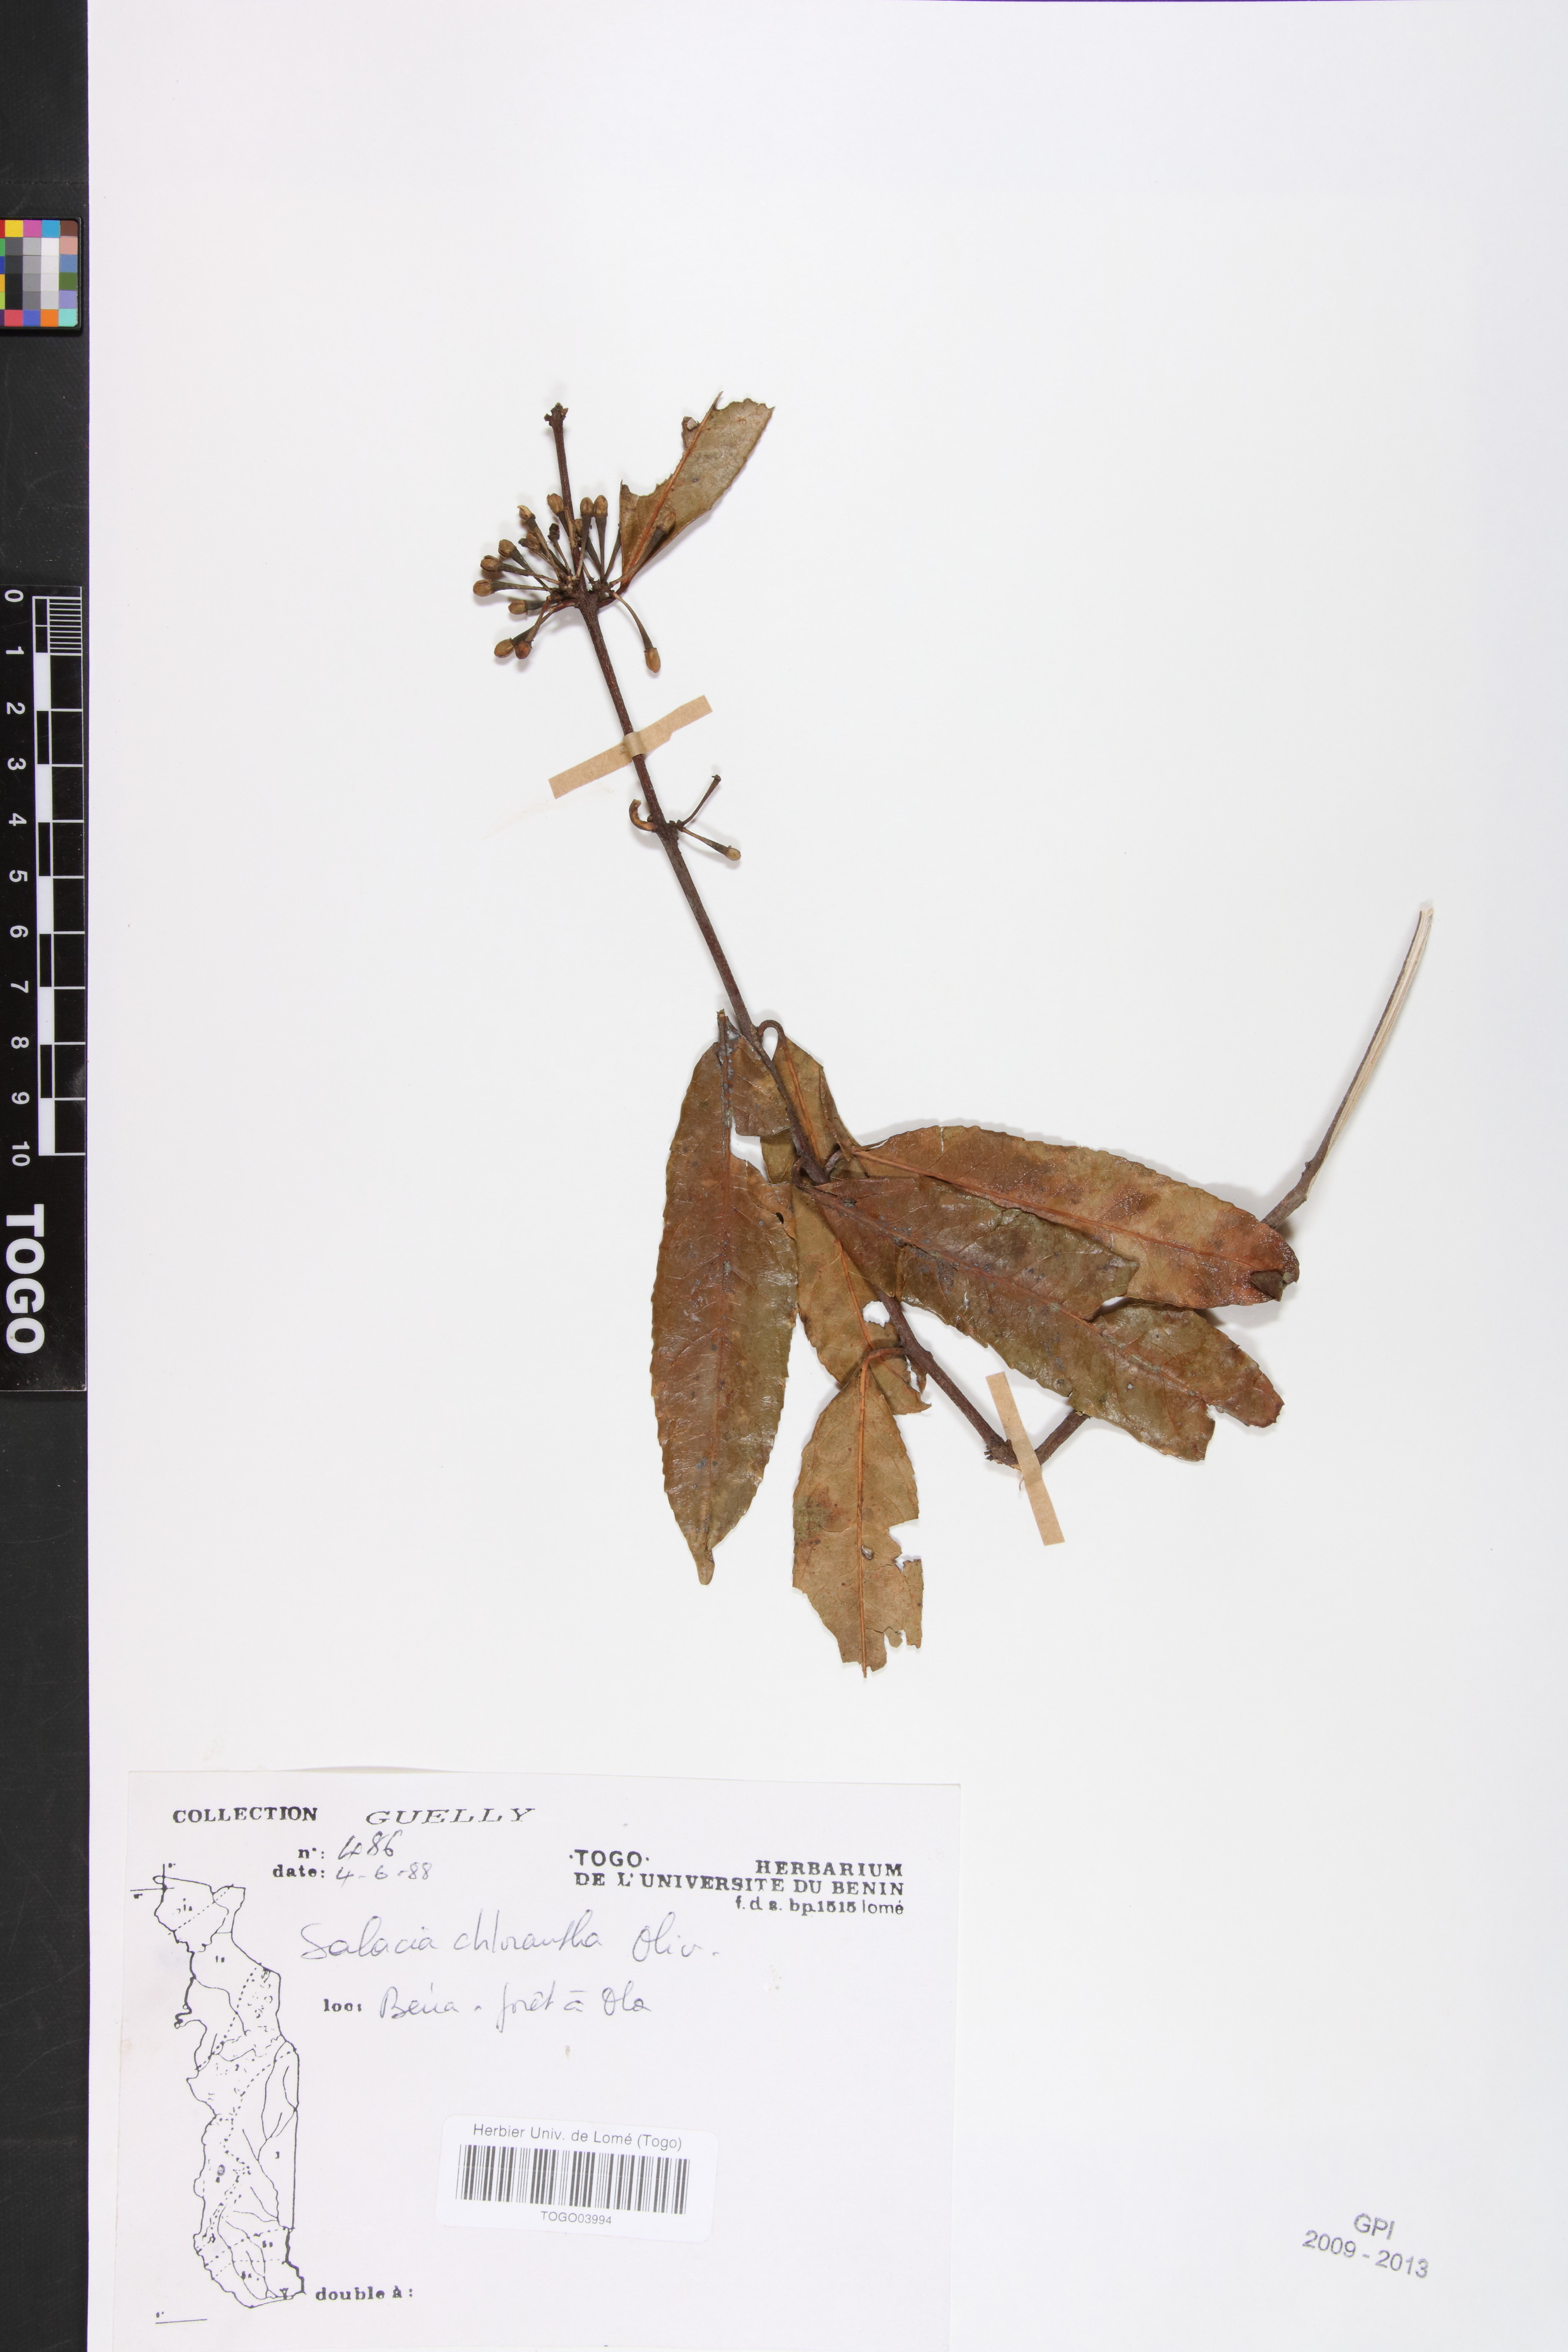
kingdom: Plantae
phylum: Tracheophyta
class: Magnoliopsida
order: Celastrales
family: Celastraceae
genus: Salacia
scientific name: Salacia chlorantha
